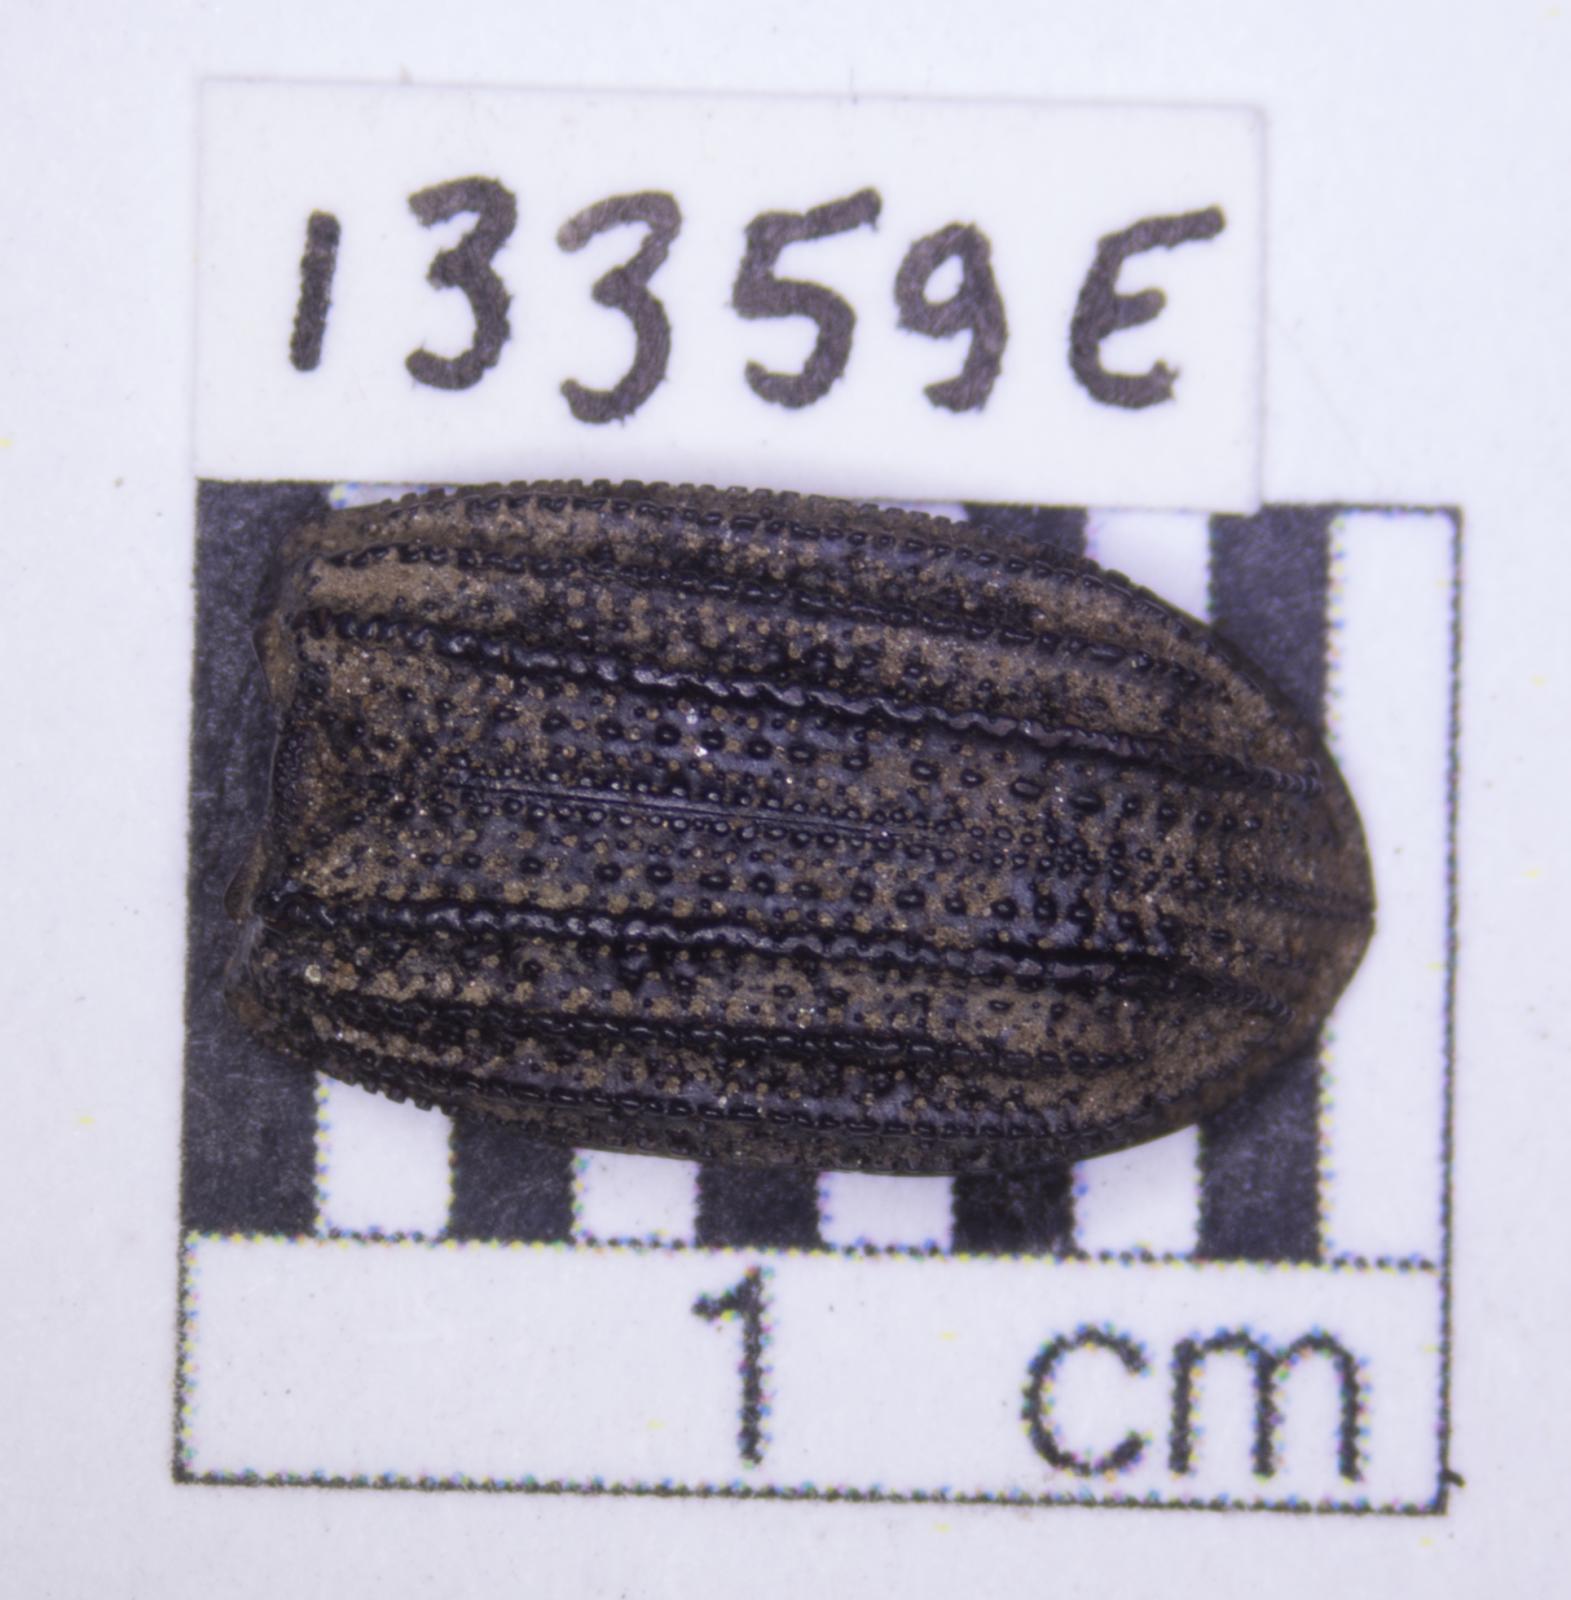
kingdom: Animalia
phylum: Arthropoda
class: Insecta
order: Coleoptera
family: Tenebrionidae
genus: Nyctoporis
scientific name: Nyctoporis carinata
